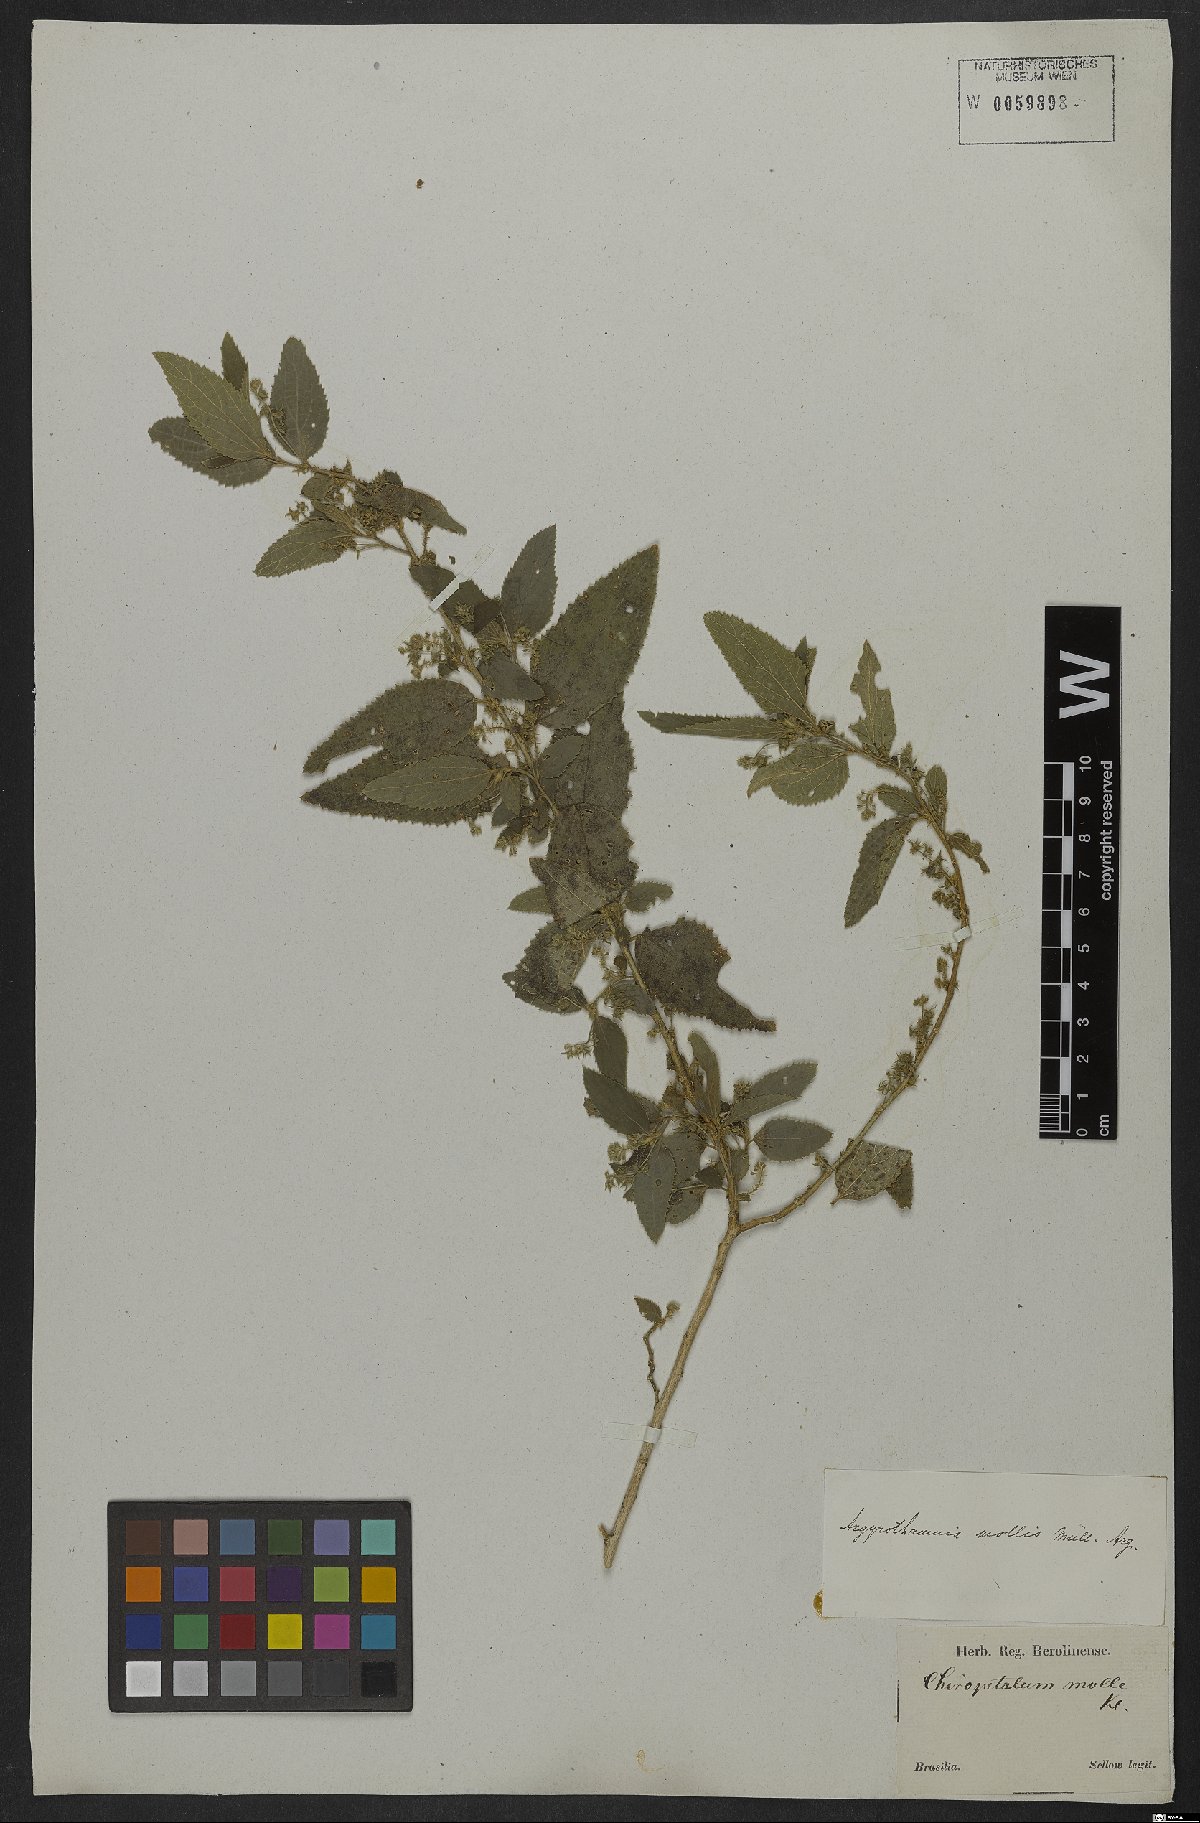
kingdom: Plantae
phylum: Tracheophyta
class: Magnoliopsida
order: Malpighiales
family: Euphorbiaceae
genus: Chiropetalum
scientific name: Chiropetalum molle
